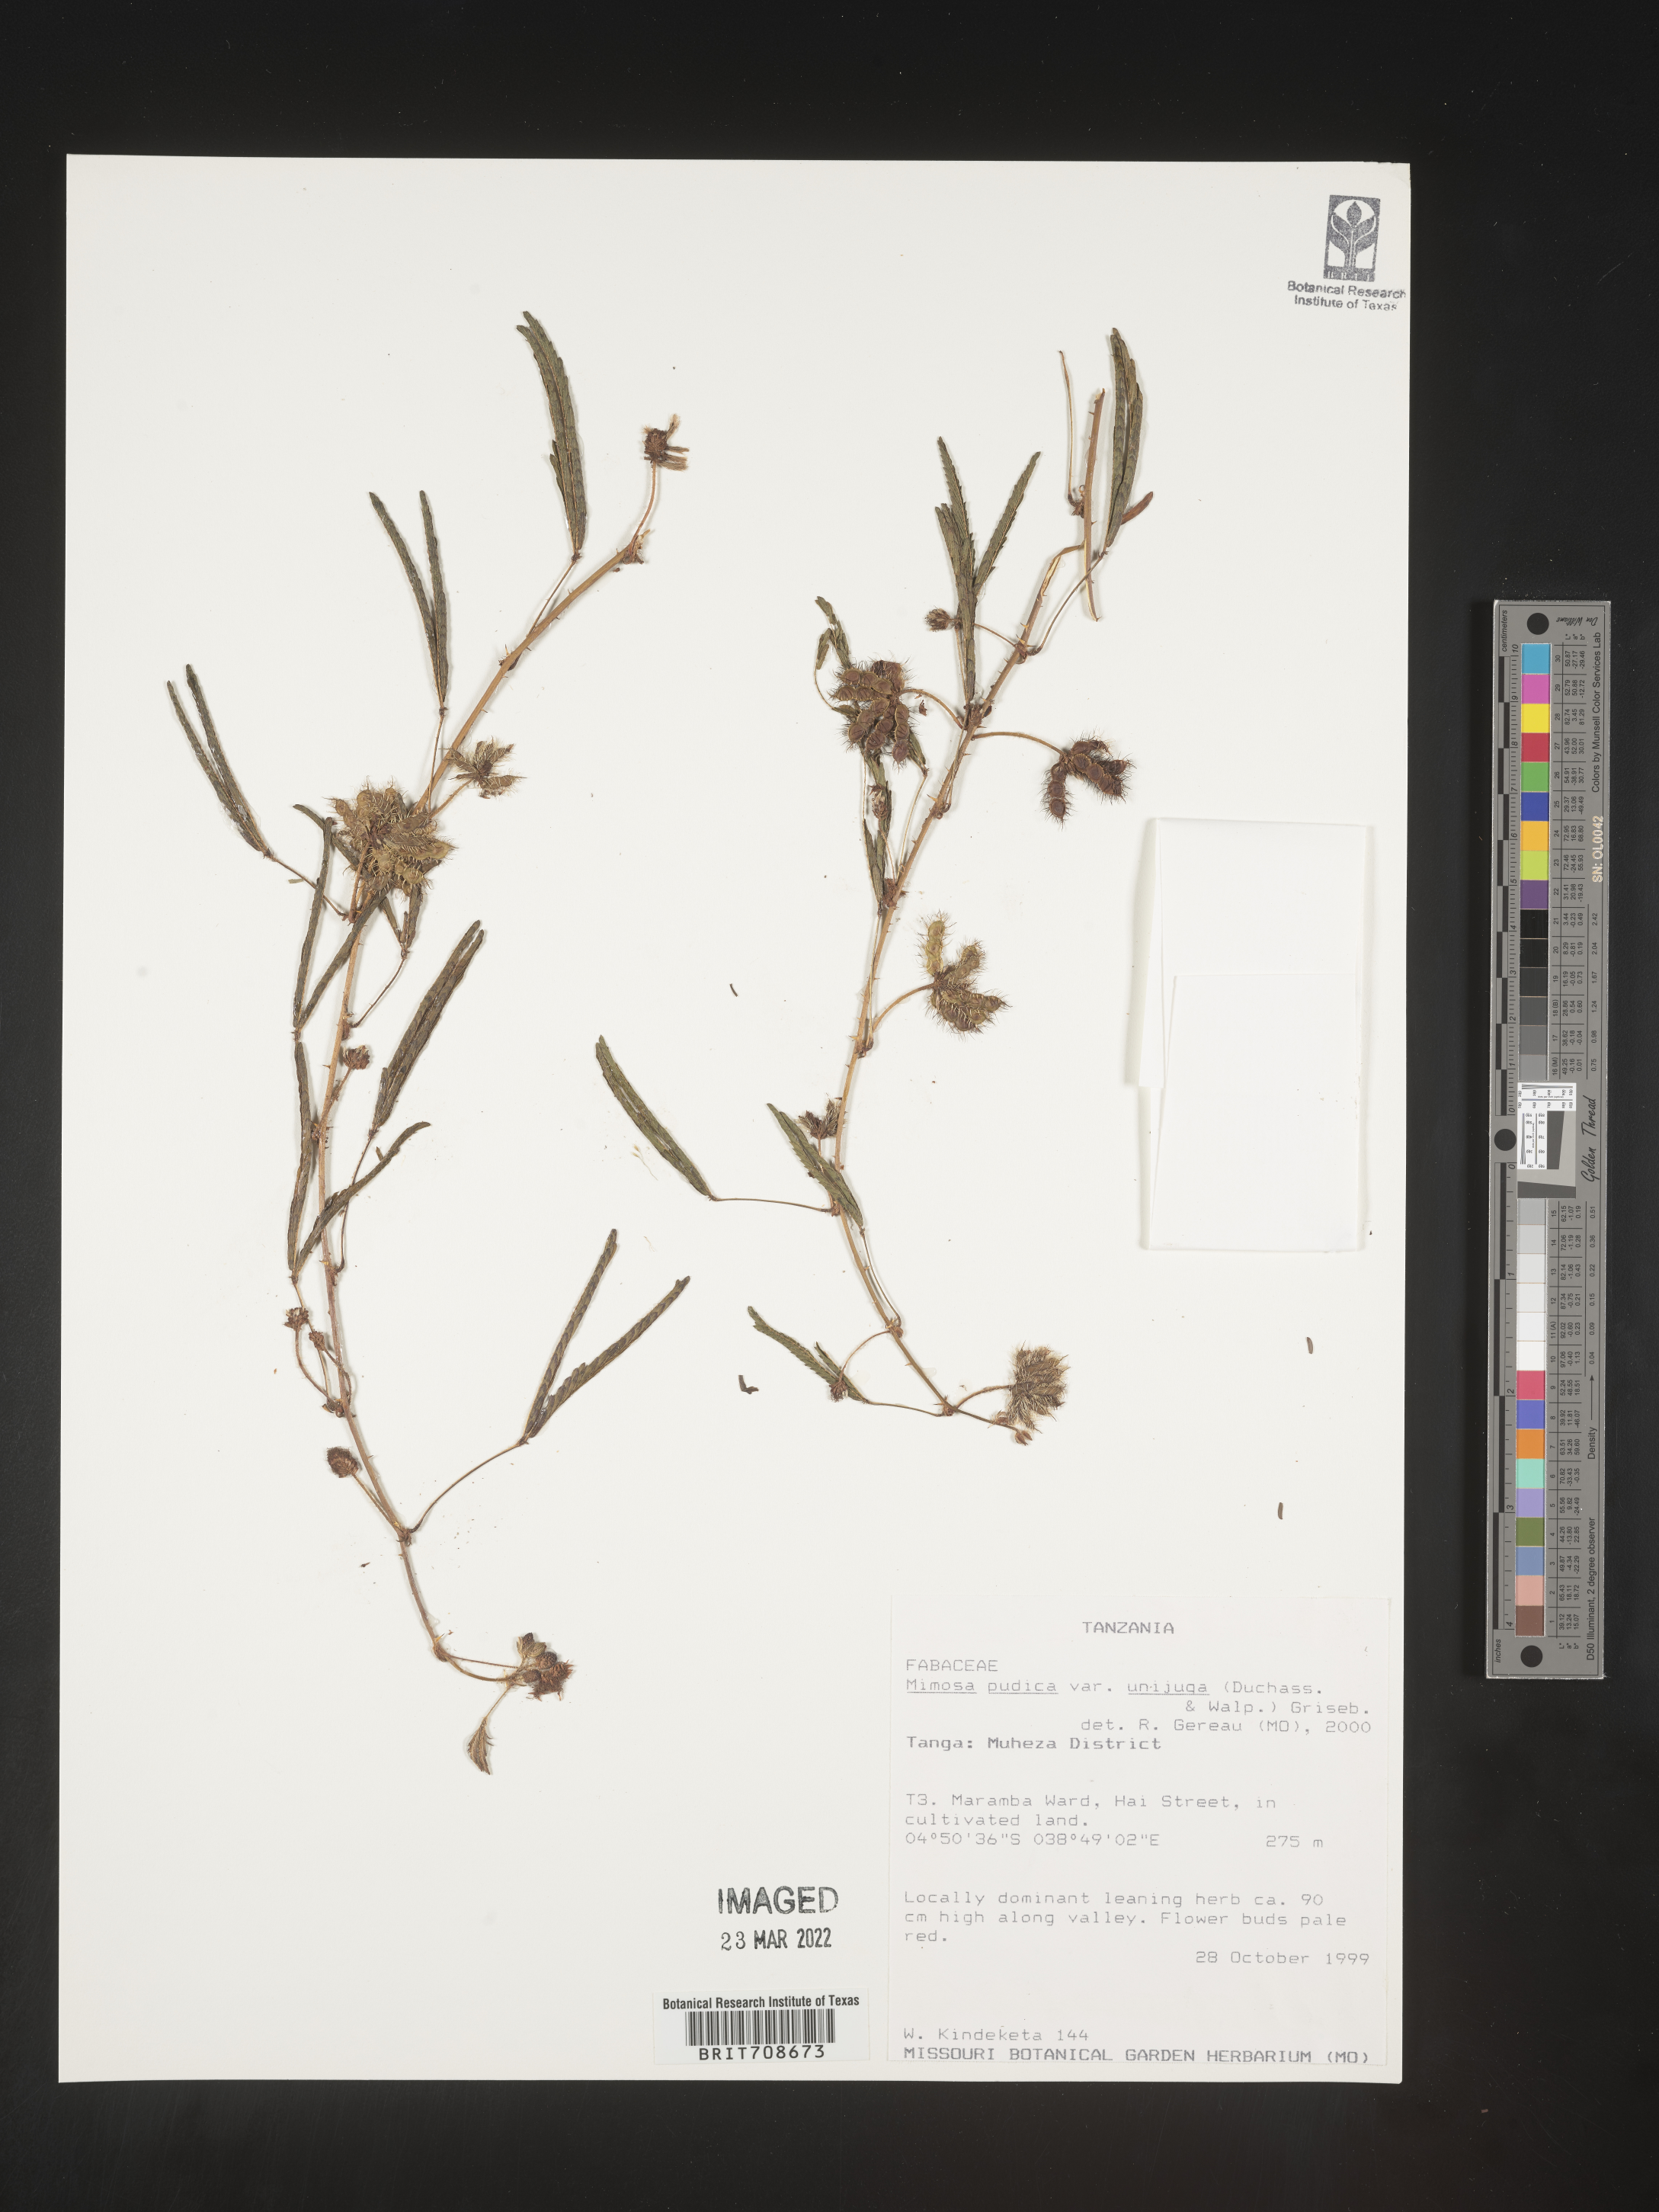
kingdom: Plantae
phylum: Tracheophyta
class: Magnoliopsida
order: Fabales
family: Fabaceae
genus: Mimosa
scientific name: Mimosa
